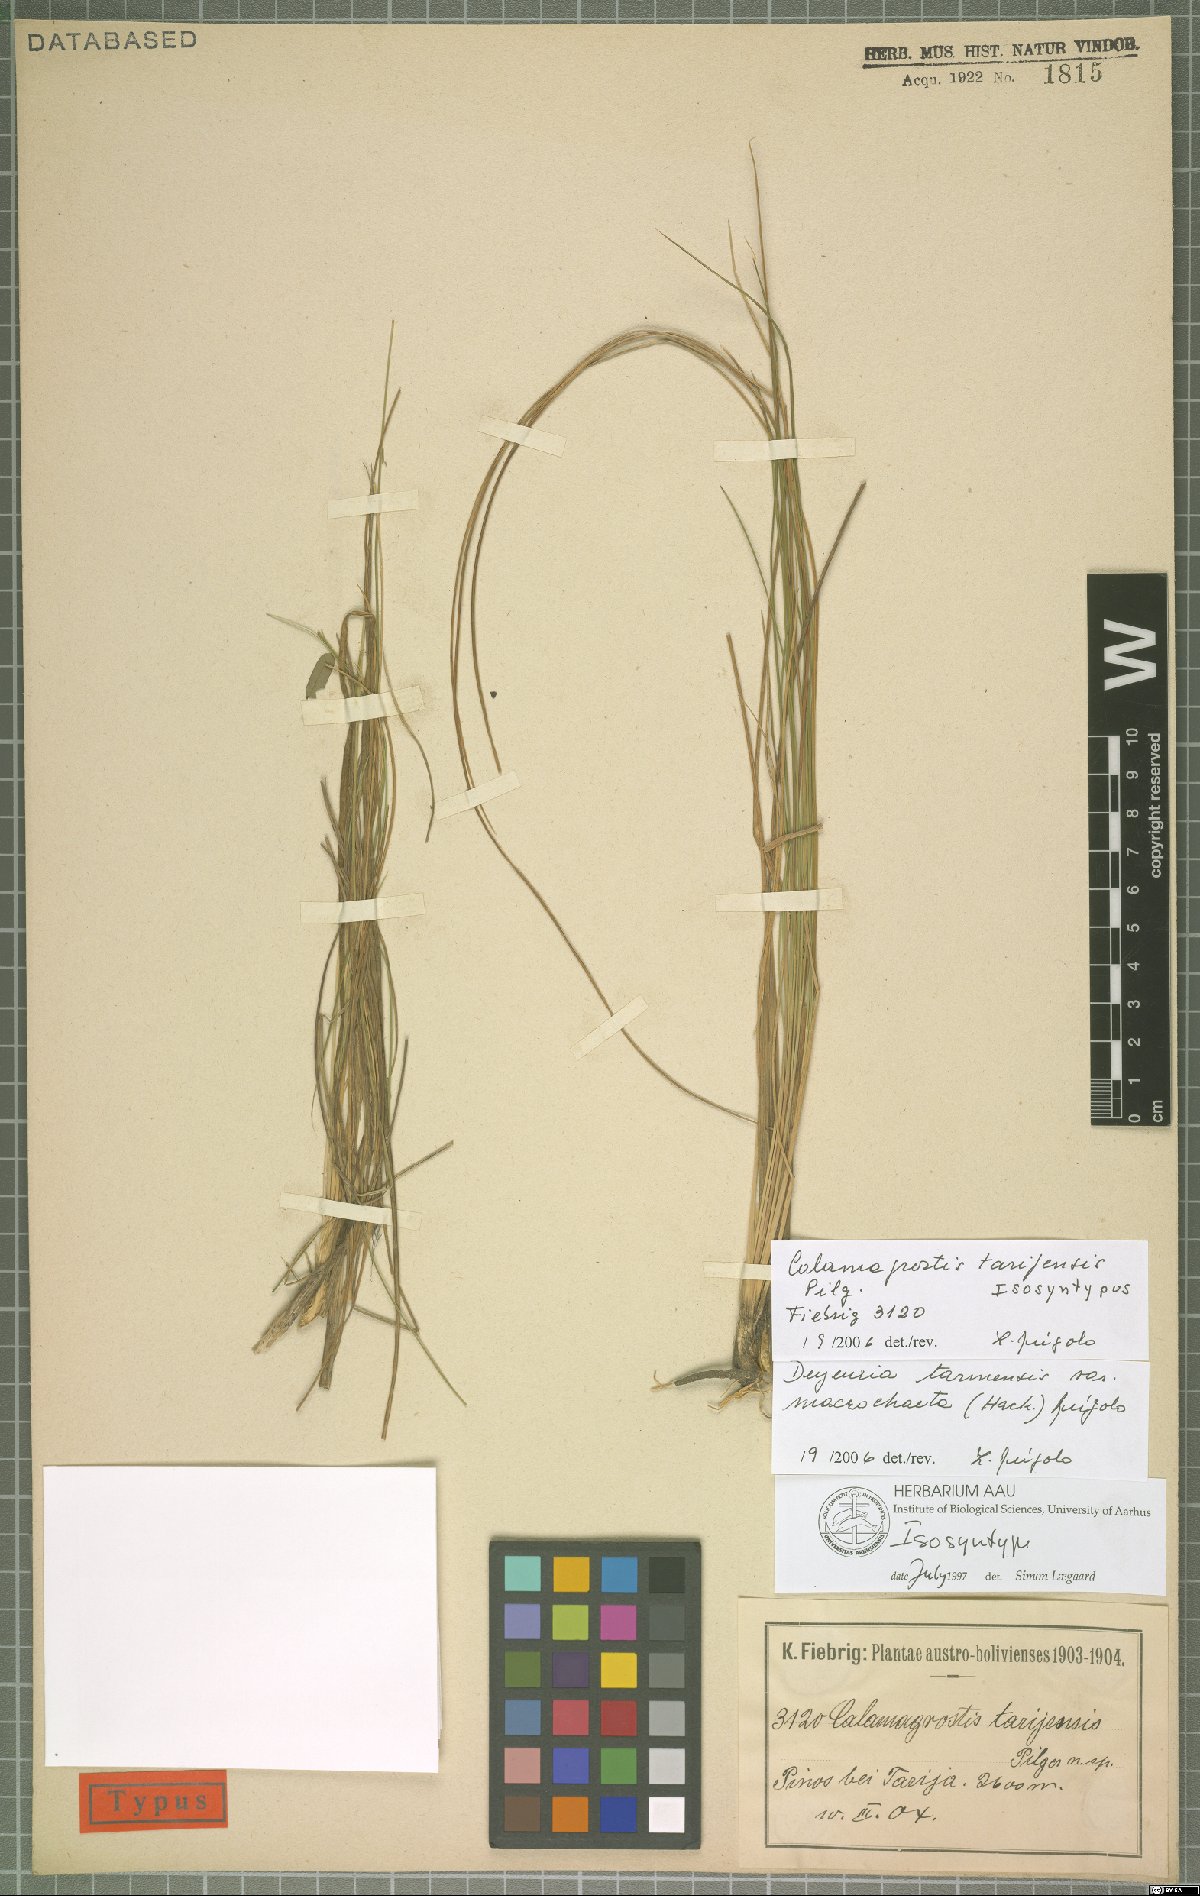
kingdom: Plantae
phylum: Tracheophyta
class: Liliopsida
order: Poales
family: Poaceae
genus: Cinnagrostis
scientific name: Cinnagrostis tarmensis
